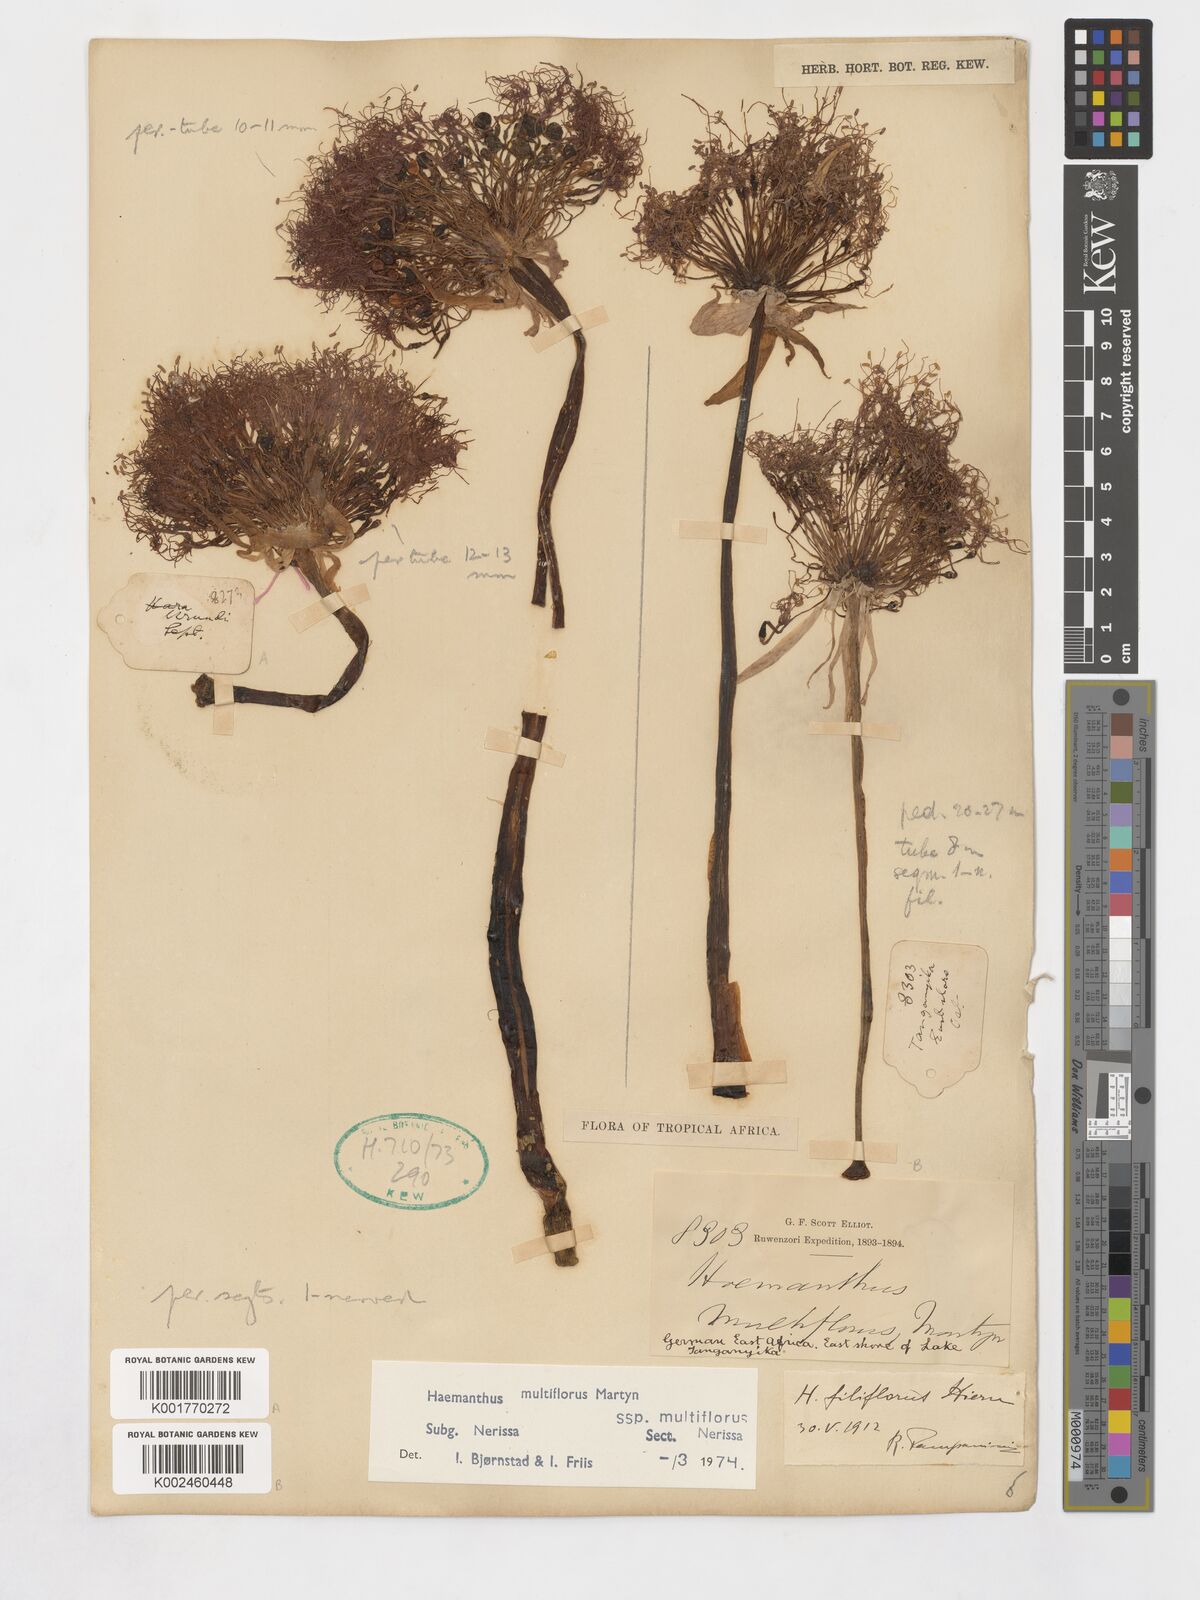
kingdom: Plantae
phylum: Tracheophyta
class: Liliopsida
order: Asparagales
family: Amaryllidaceae
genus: Scadoxus
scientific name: Scadoxus multiflorus
